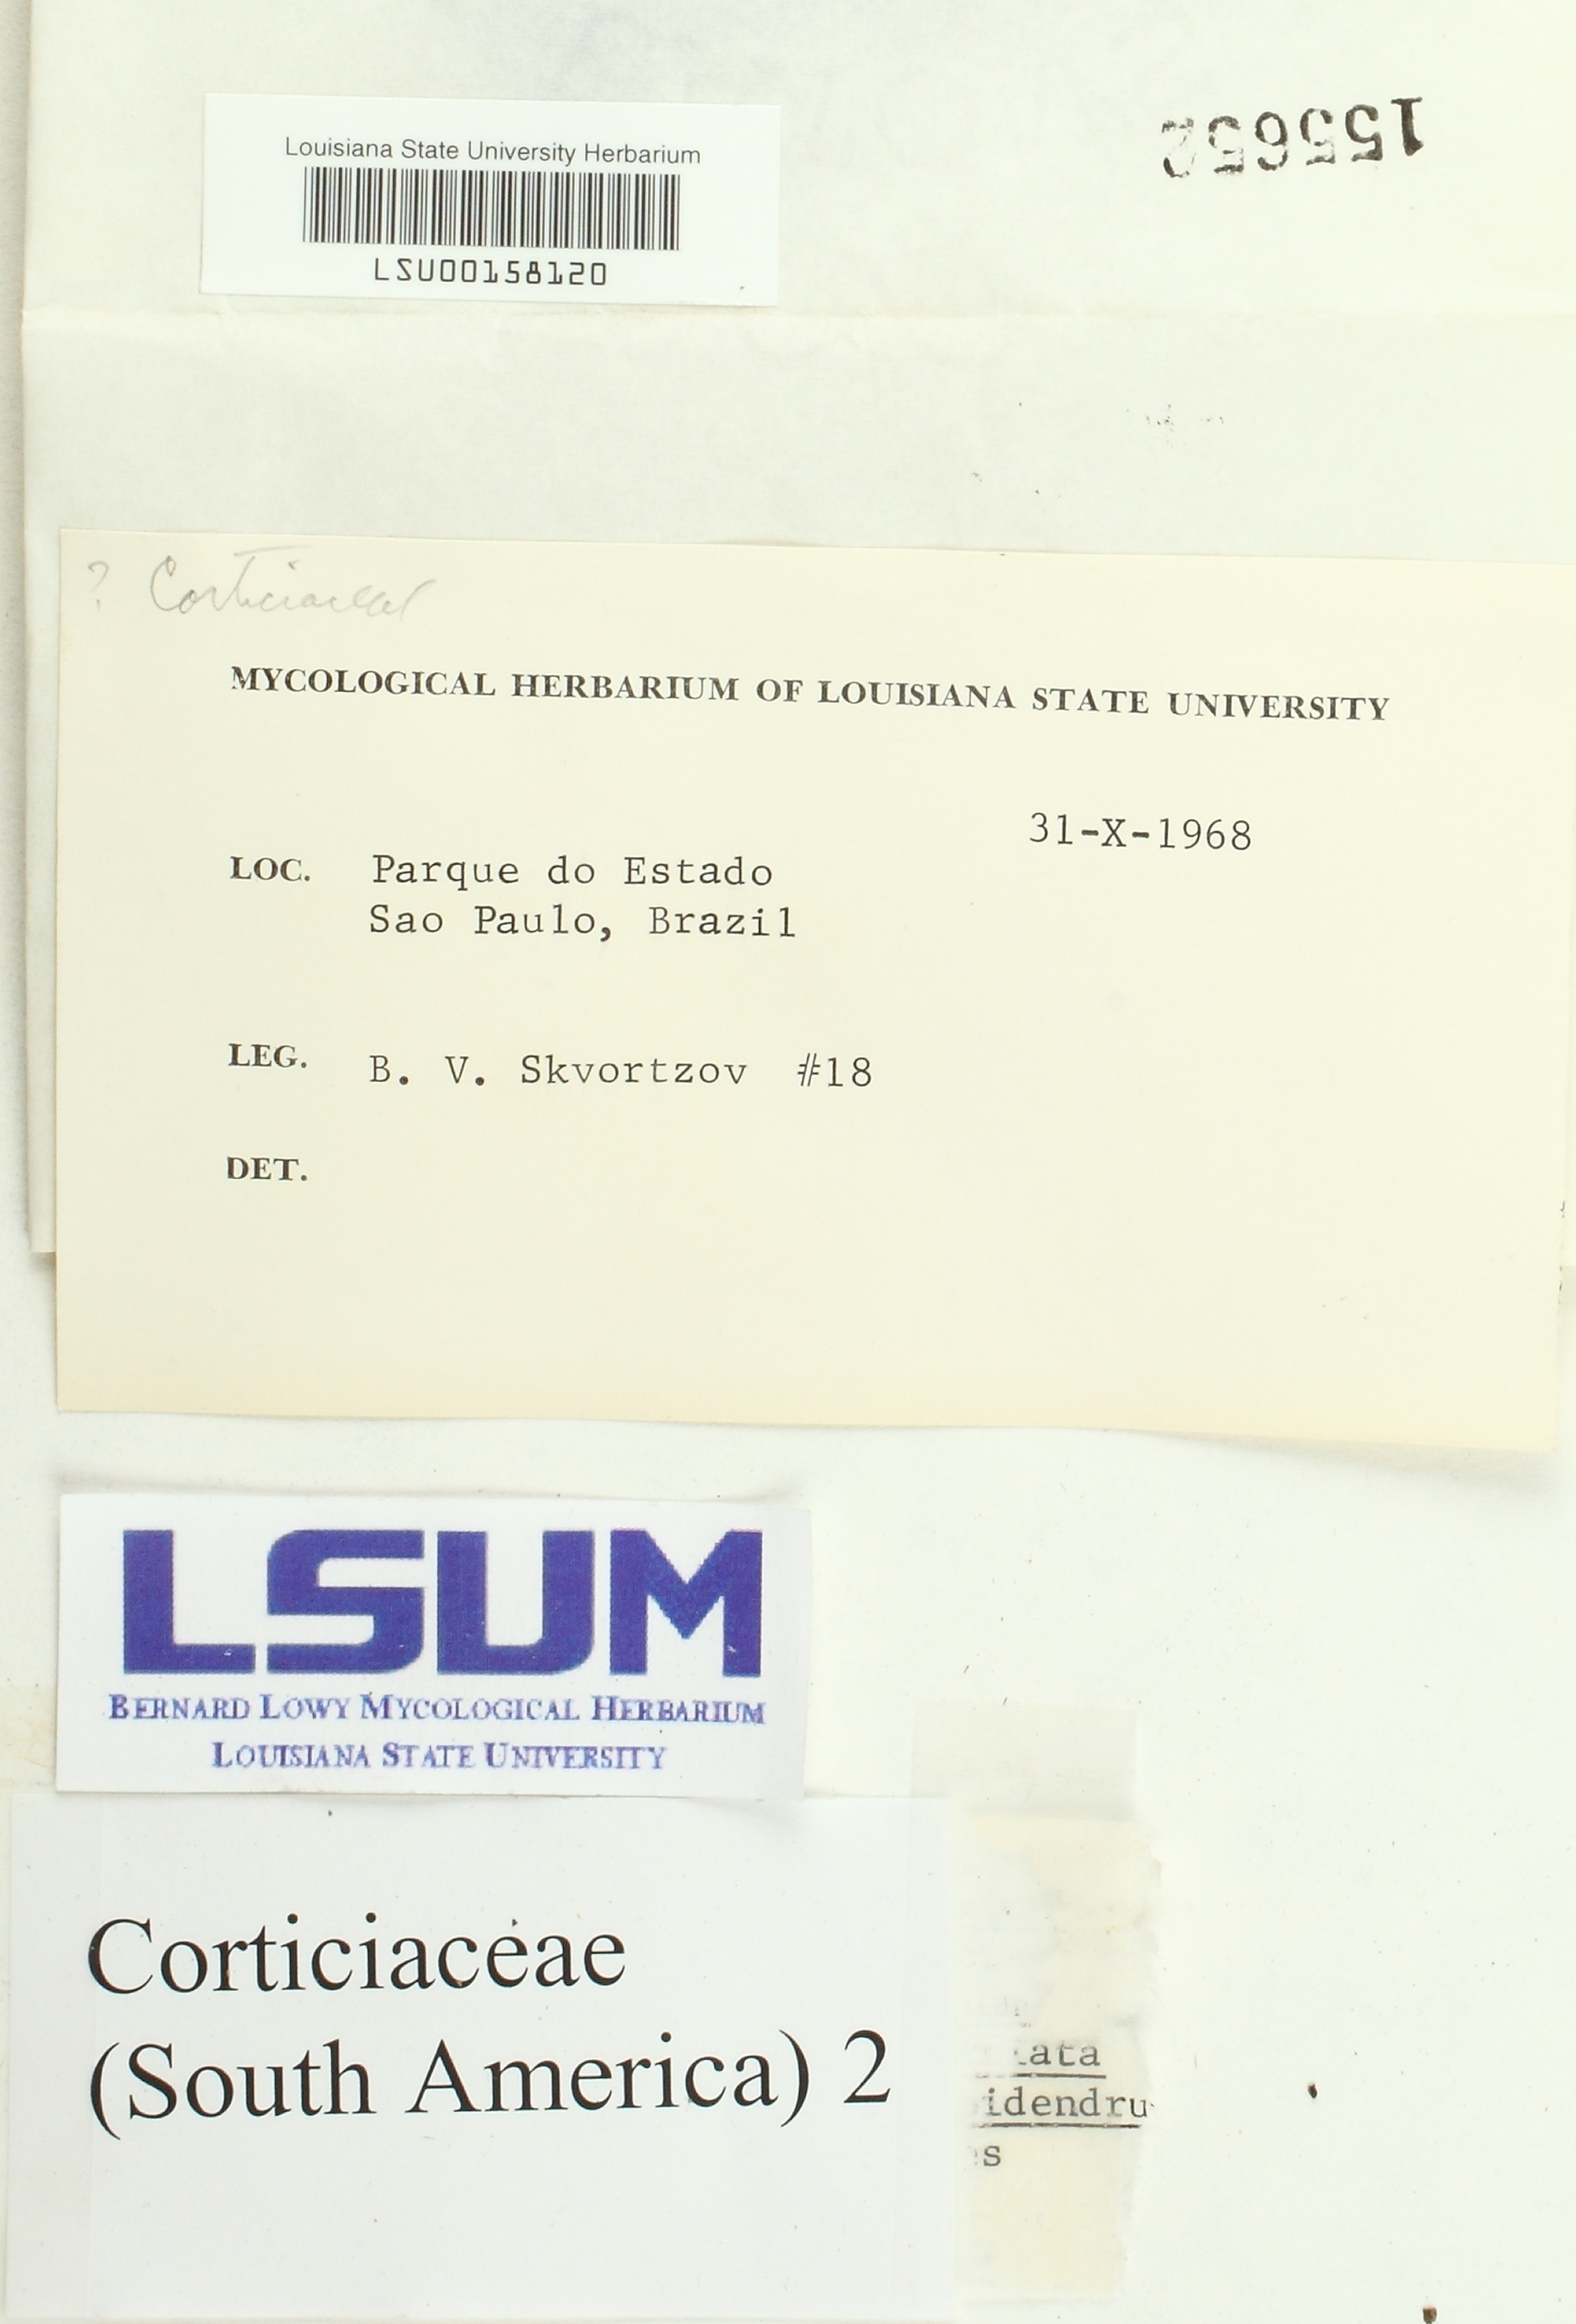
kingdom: Fungi
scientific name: Fungi
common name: Fungi
